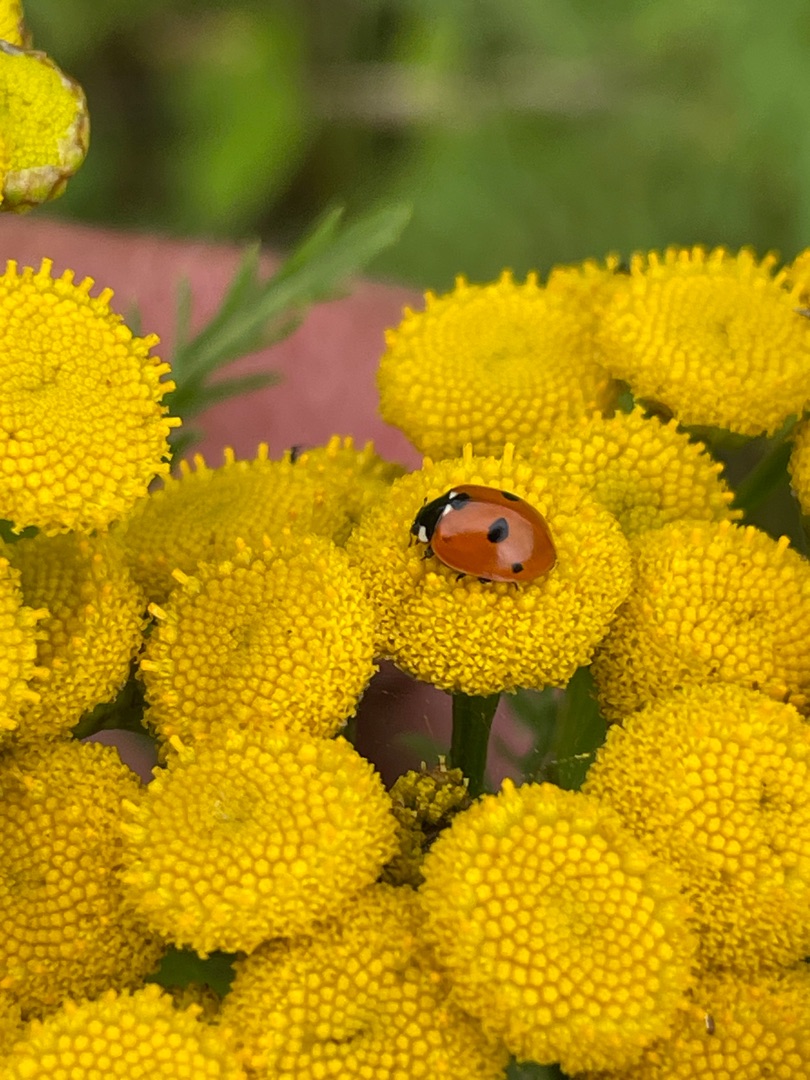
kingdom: Animalia
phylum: Arthropoda
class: Insecta
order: Coleoptera
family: Coccinellidae
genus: Coccinella
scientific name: Coccinella quinquepunctata
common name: Femplettet mariehøne
